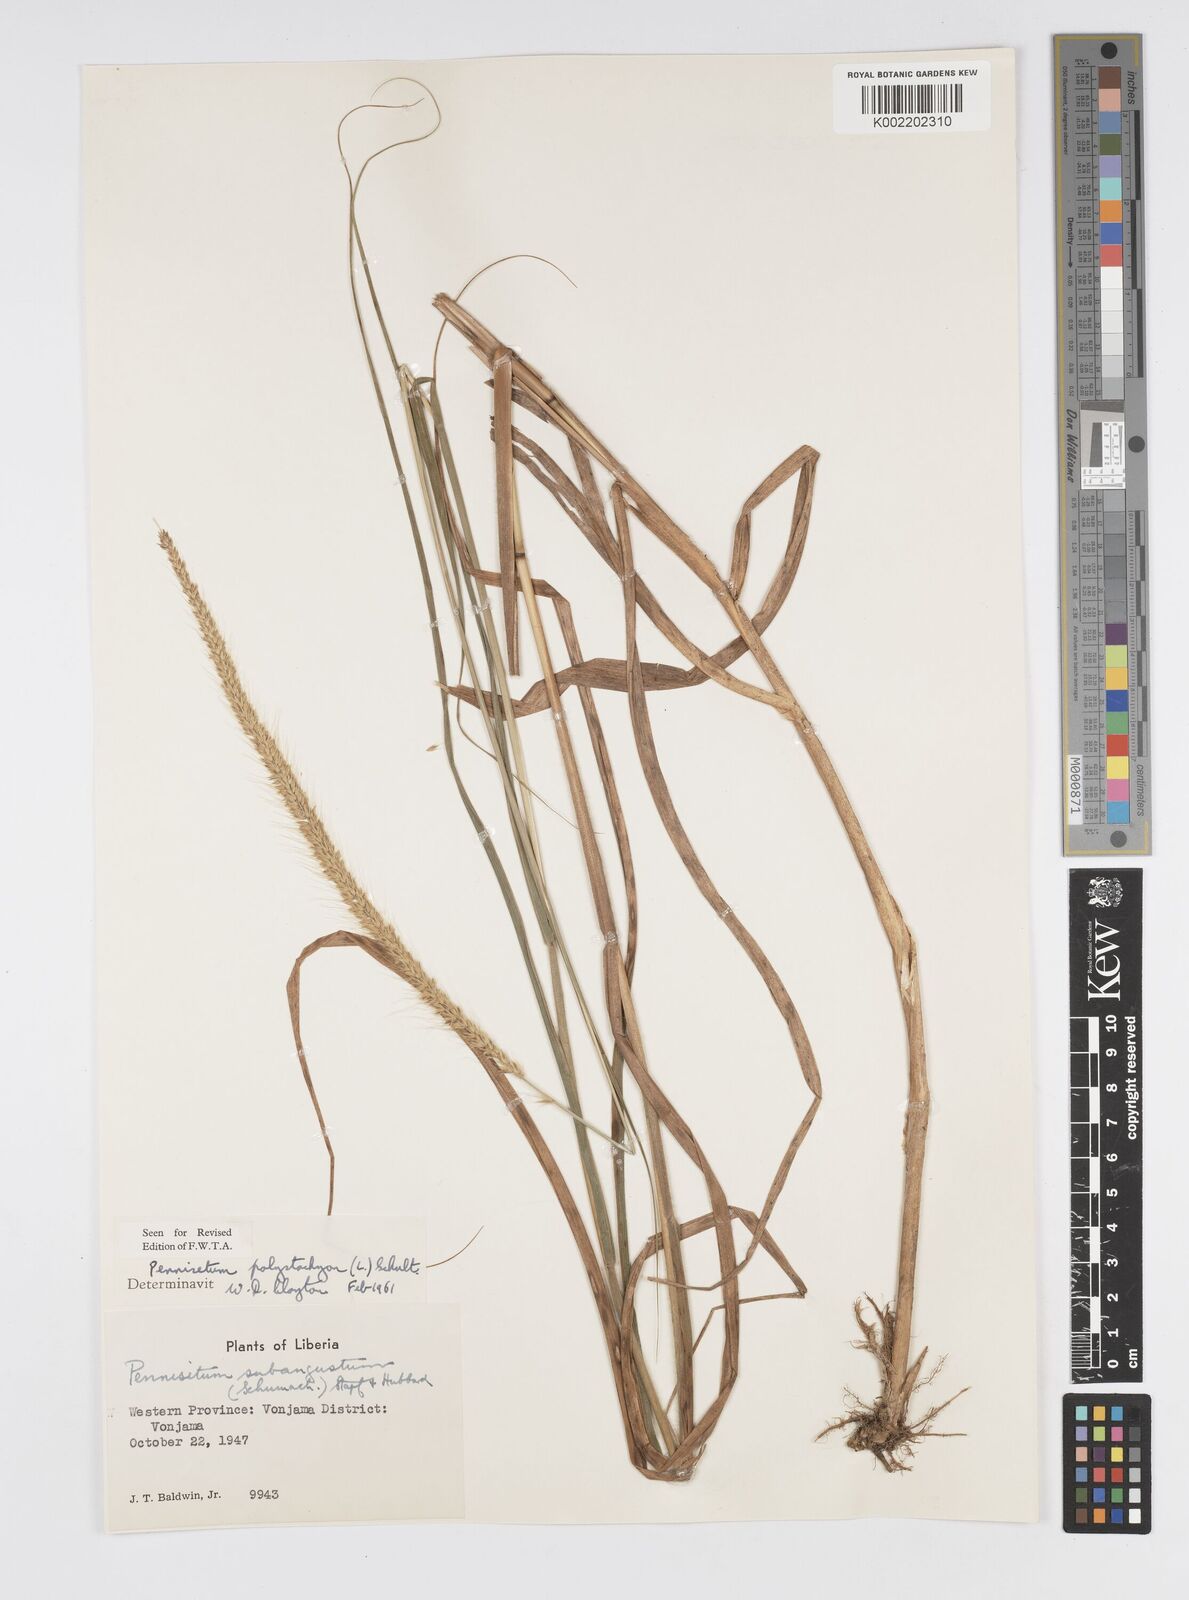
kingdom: Plantae
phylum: Tracheophyta
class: Liliopsida
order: Poales
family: Poaceae
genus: Setaria
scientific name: Setaria parviflora
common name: Knotroot bristle-grass
